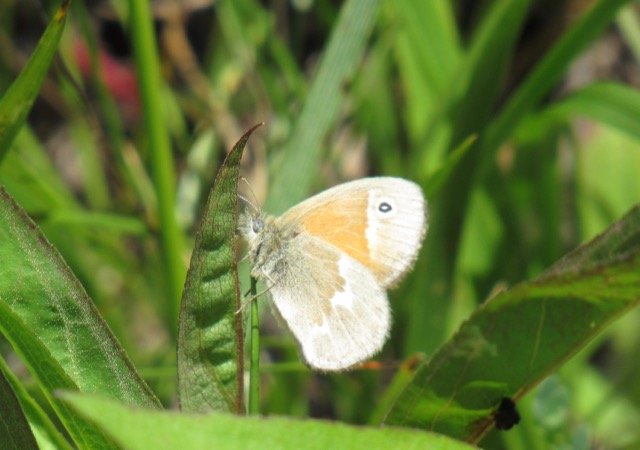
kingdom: Animalia
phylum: Arthropoda
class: Insecta
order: Lepidoptera
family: Nymphalidae
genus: Coenonympha
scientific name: Coenonympha tullia
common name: Large Heath
